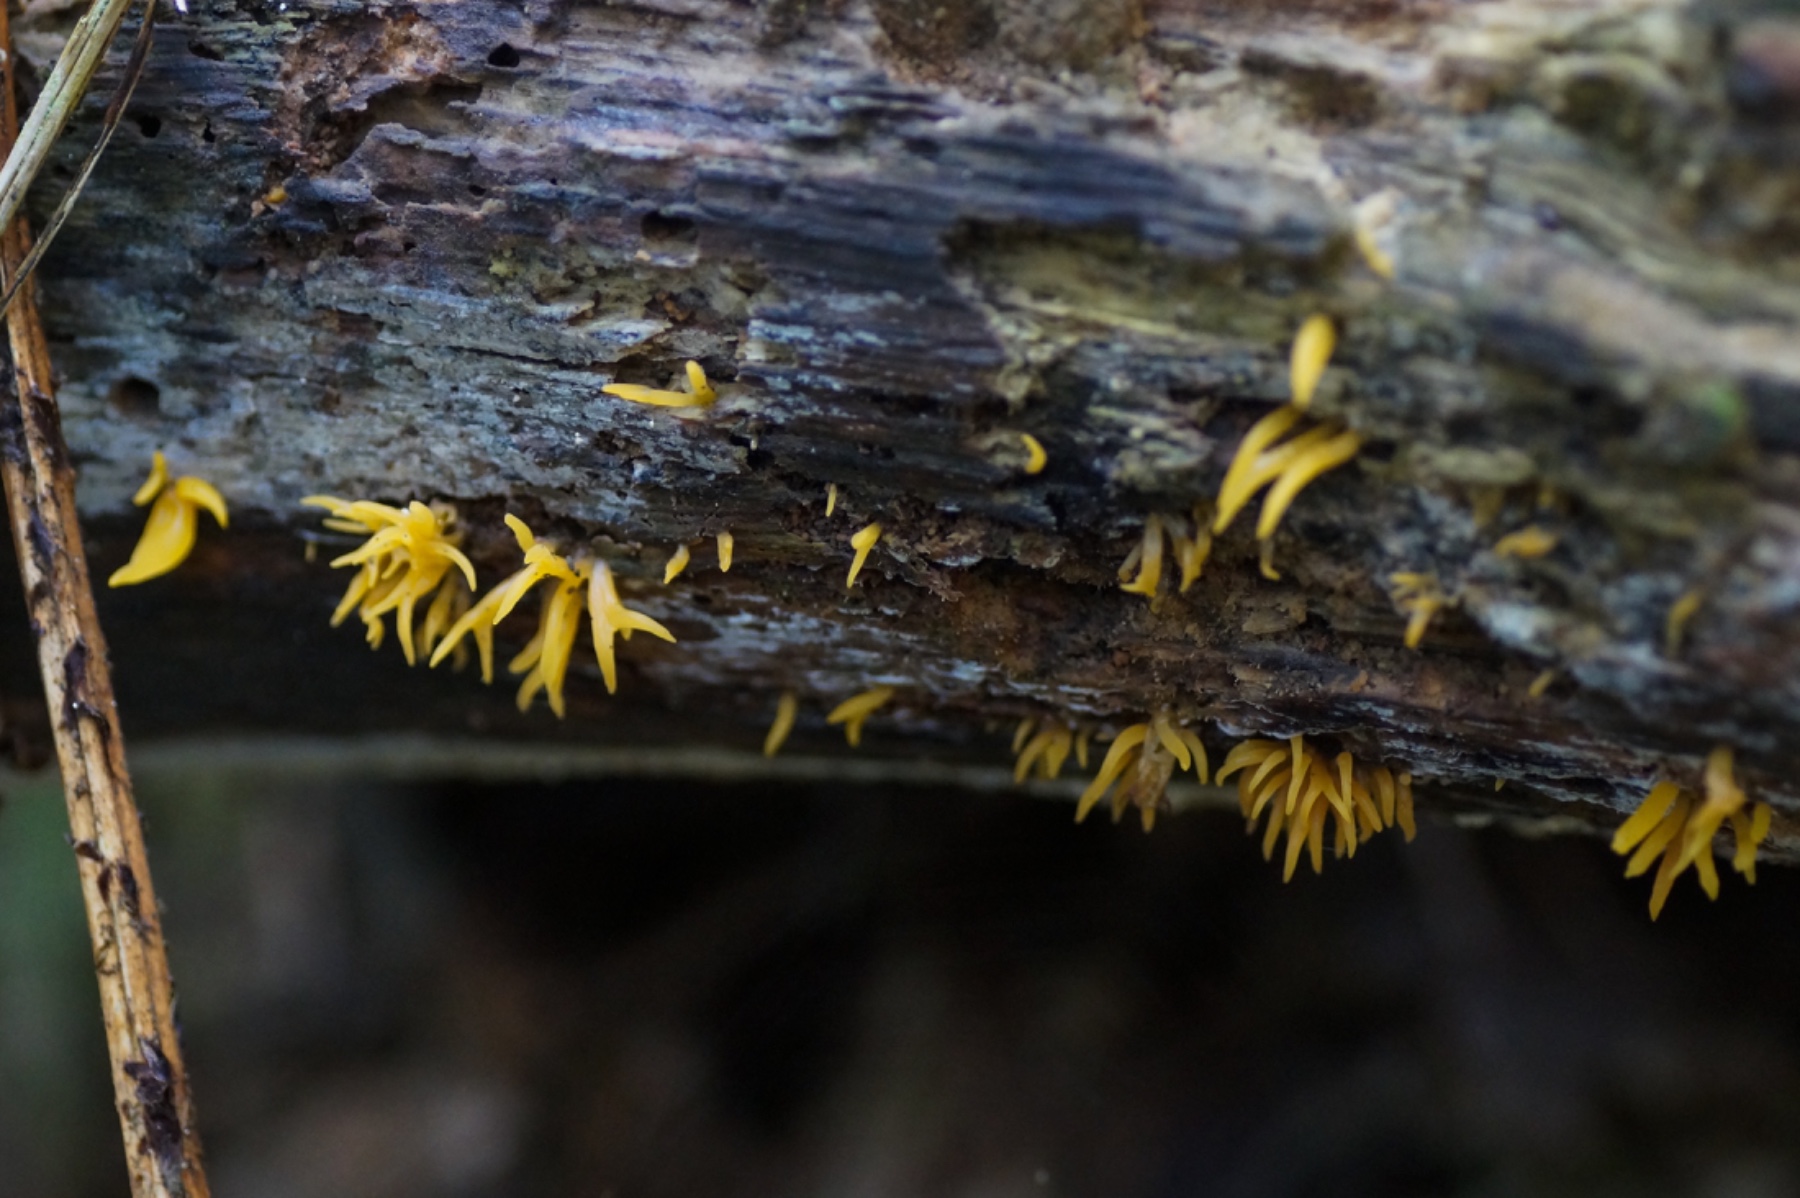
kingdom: Fungi
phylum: Basidiomycota
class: Dacrymycetes
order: Dacrymycetales
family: Dacrymycetaceae
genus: Calocera
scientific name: Calocera furcata
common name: fyrre-guldgaffel
